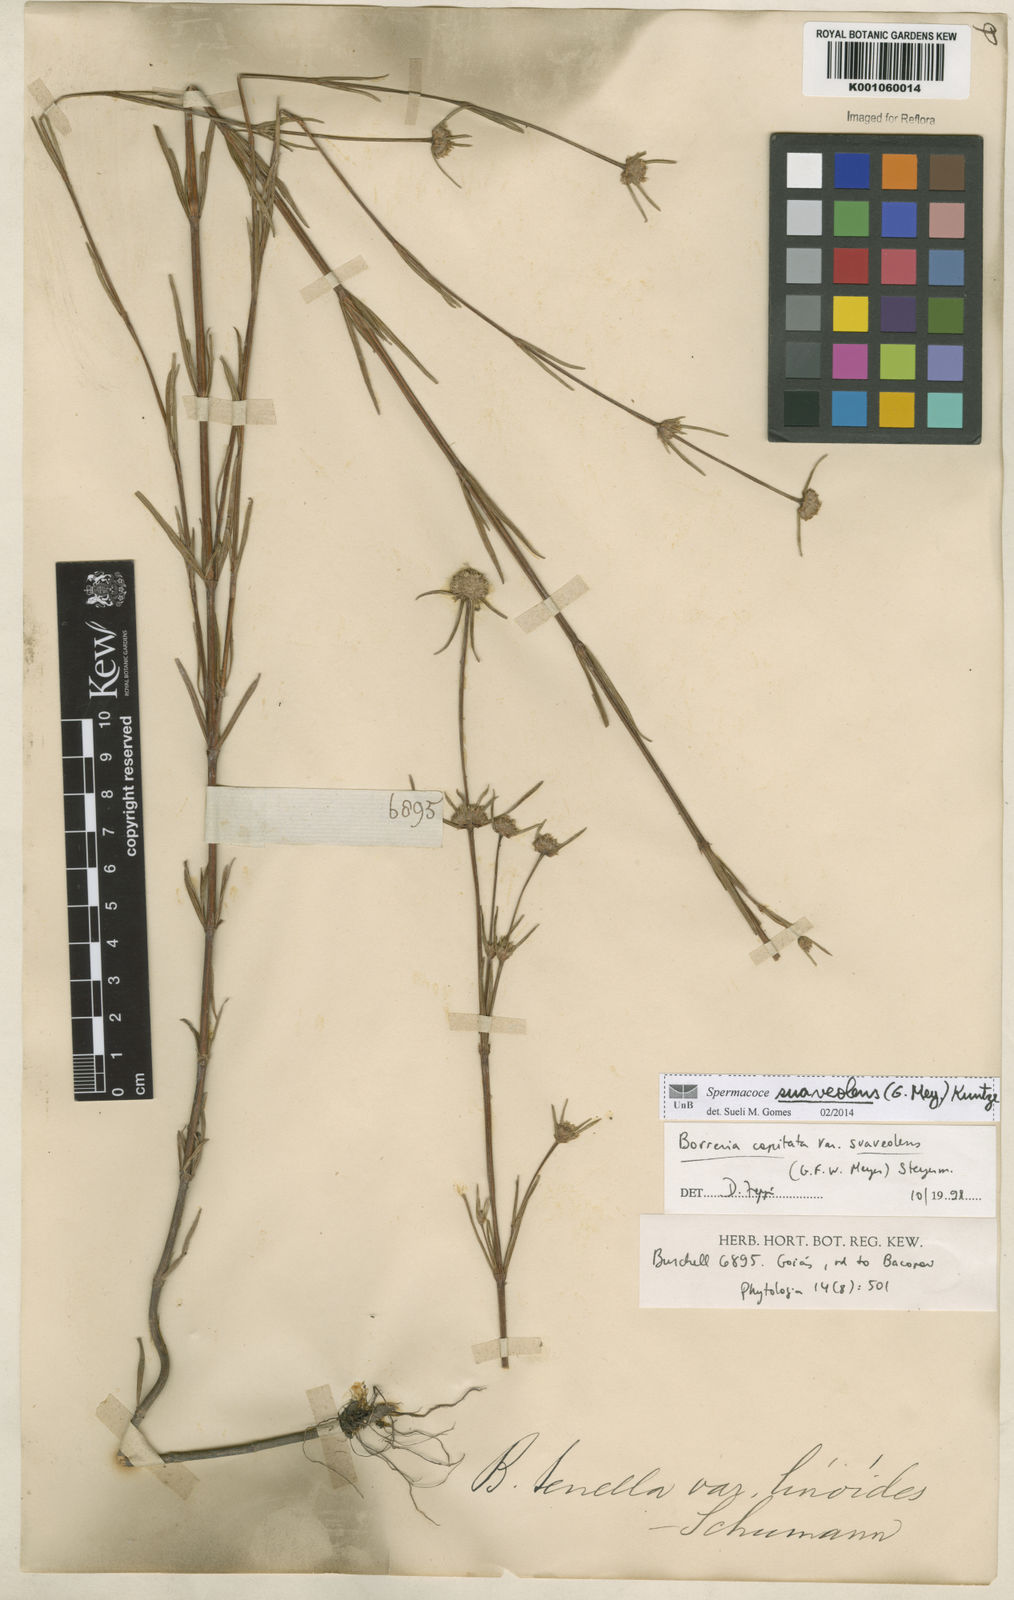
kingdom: Plantae
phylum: Tracheophyta
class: Magnoliopsida
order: Gentianales
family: Rubiaceae
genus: Spermacoce
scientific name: Spermacoce suaveolens
